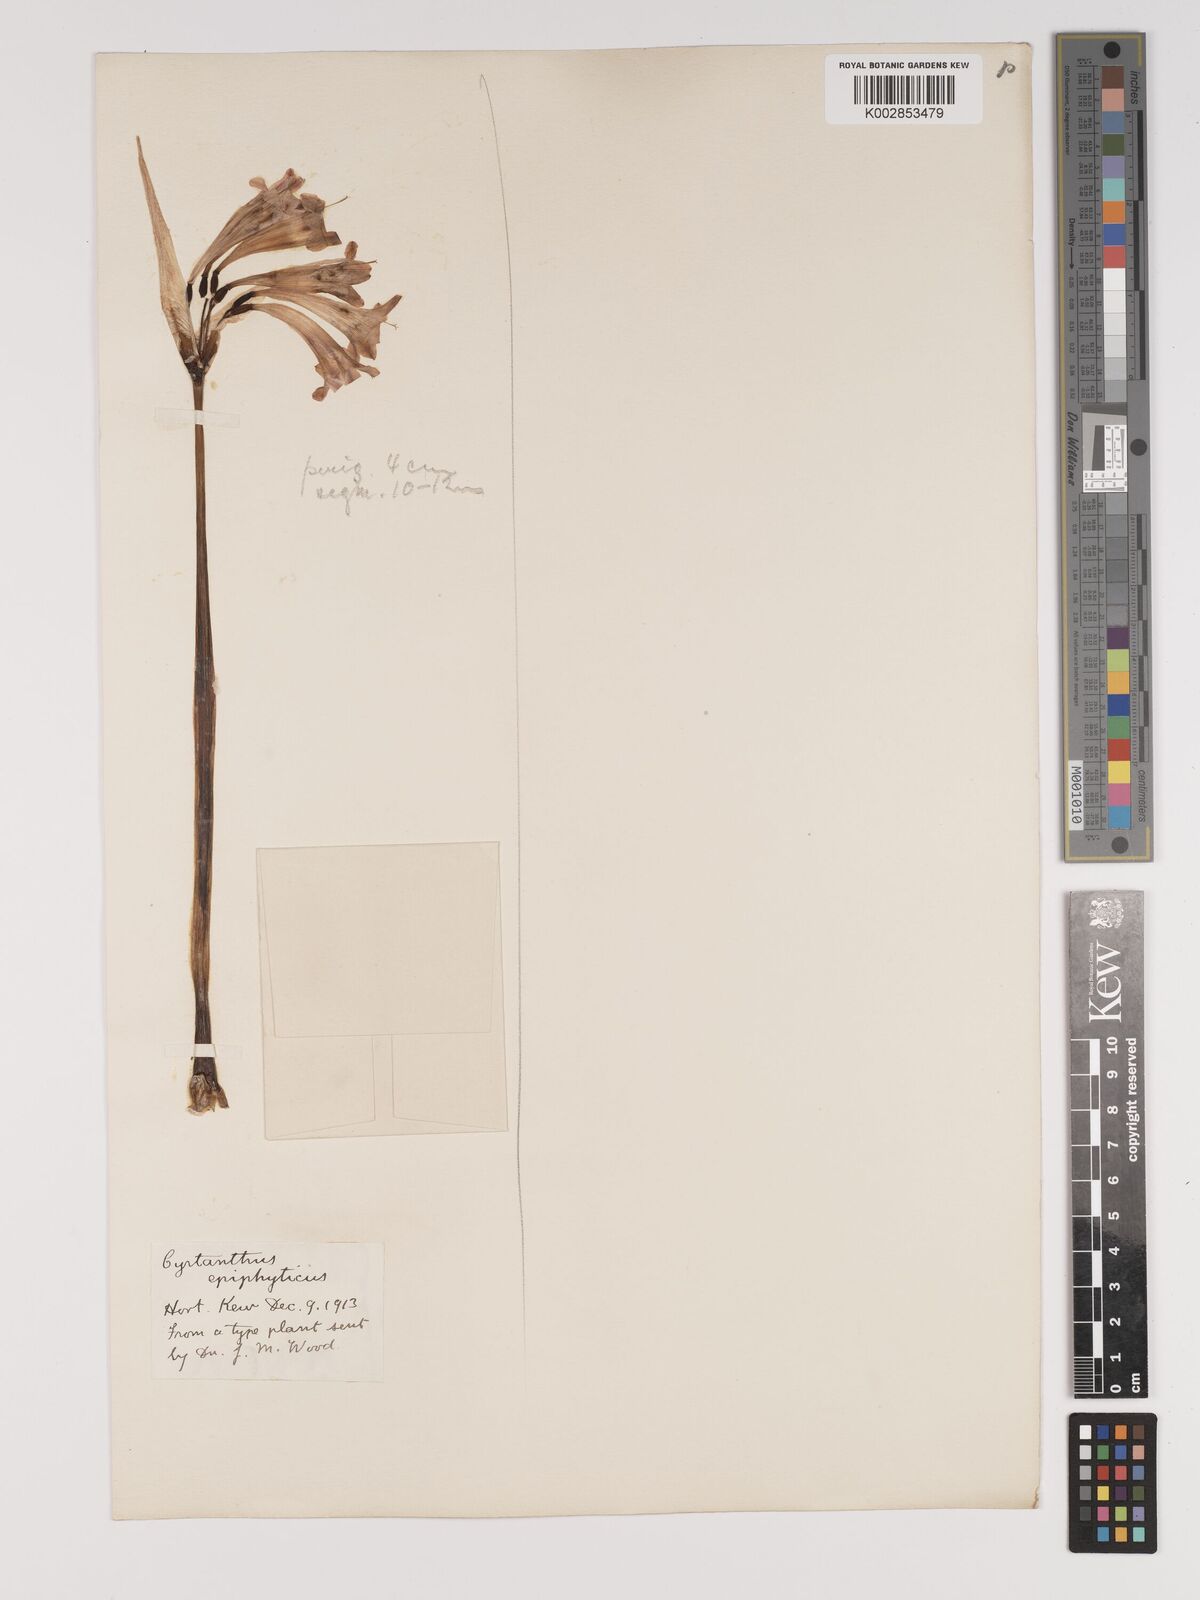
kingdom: Plantae
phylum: Tracheophyta
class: Liliopsida
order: Asparagales
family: Amaryllidaceae
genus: Cyrtanthus
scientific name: Cyrtanthus epiphyticus
